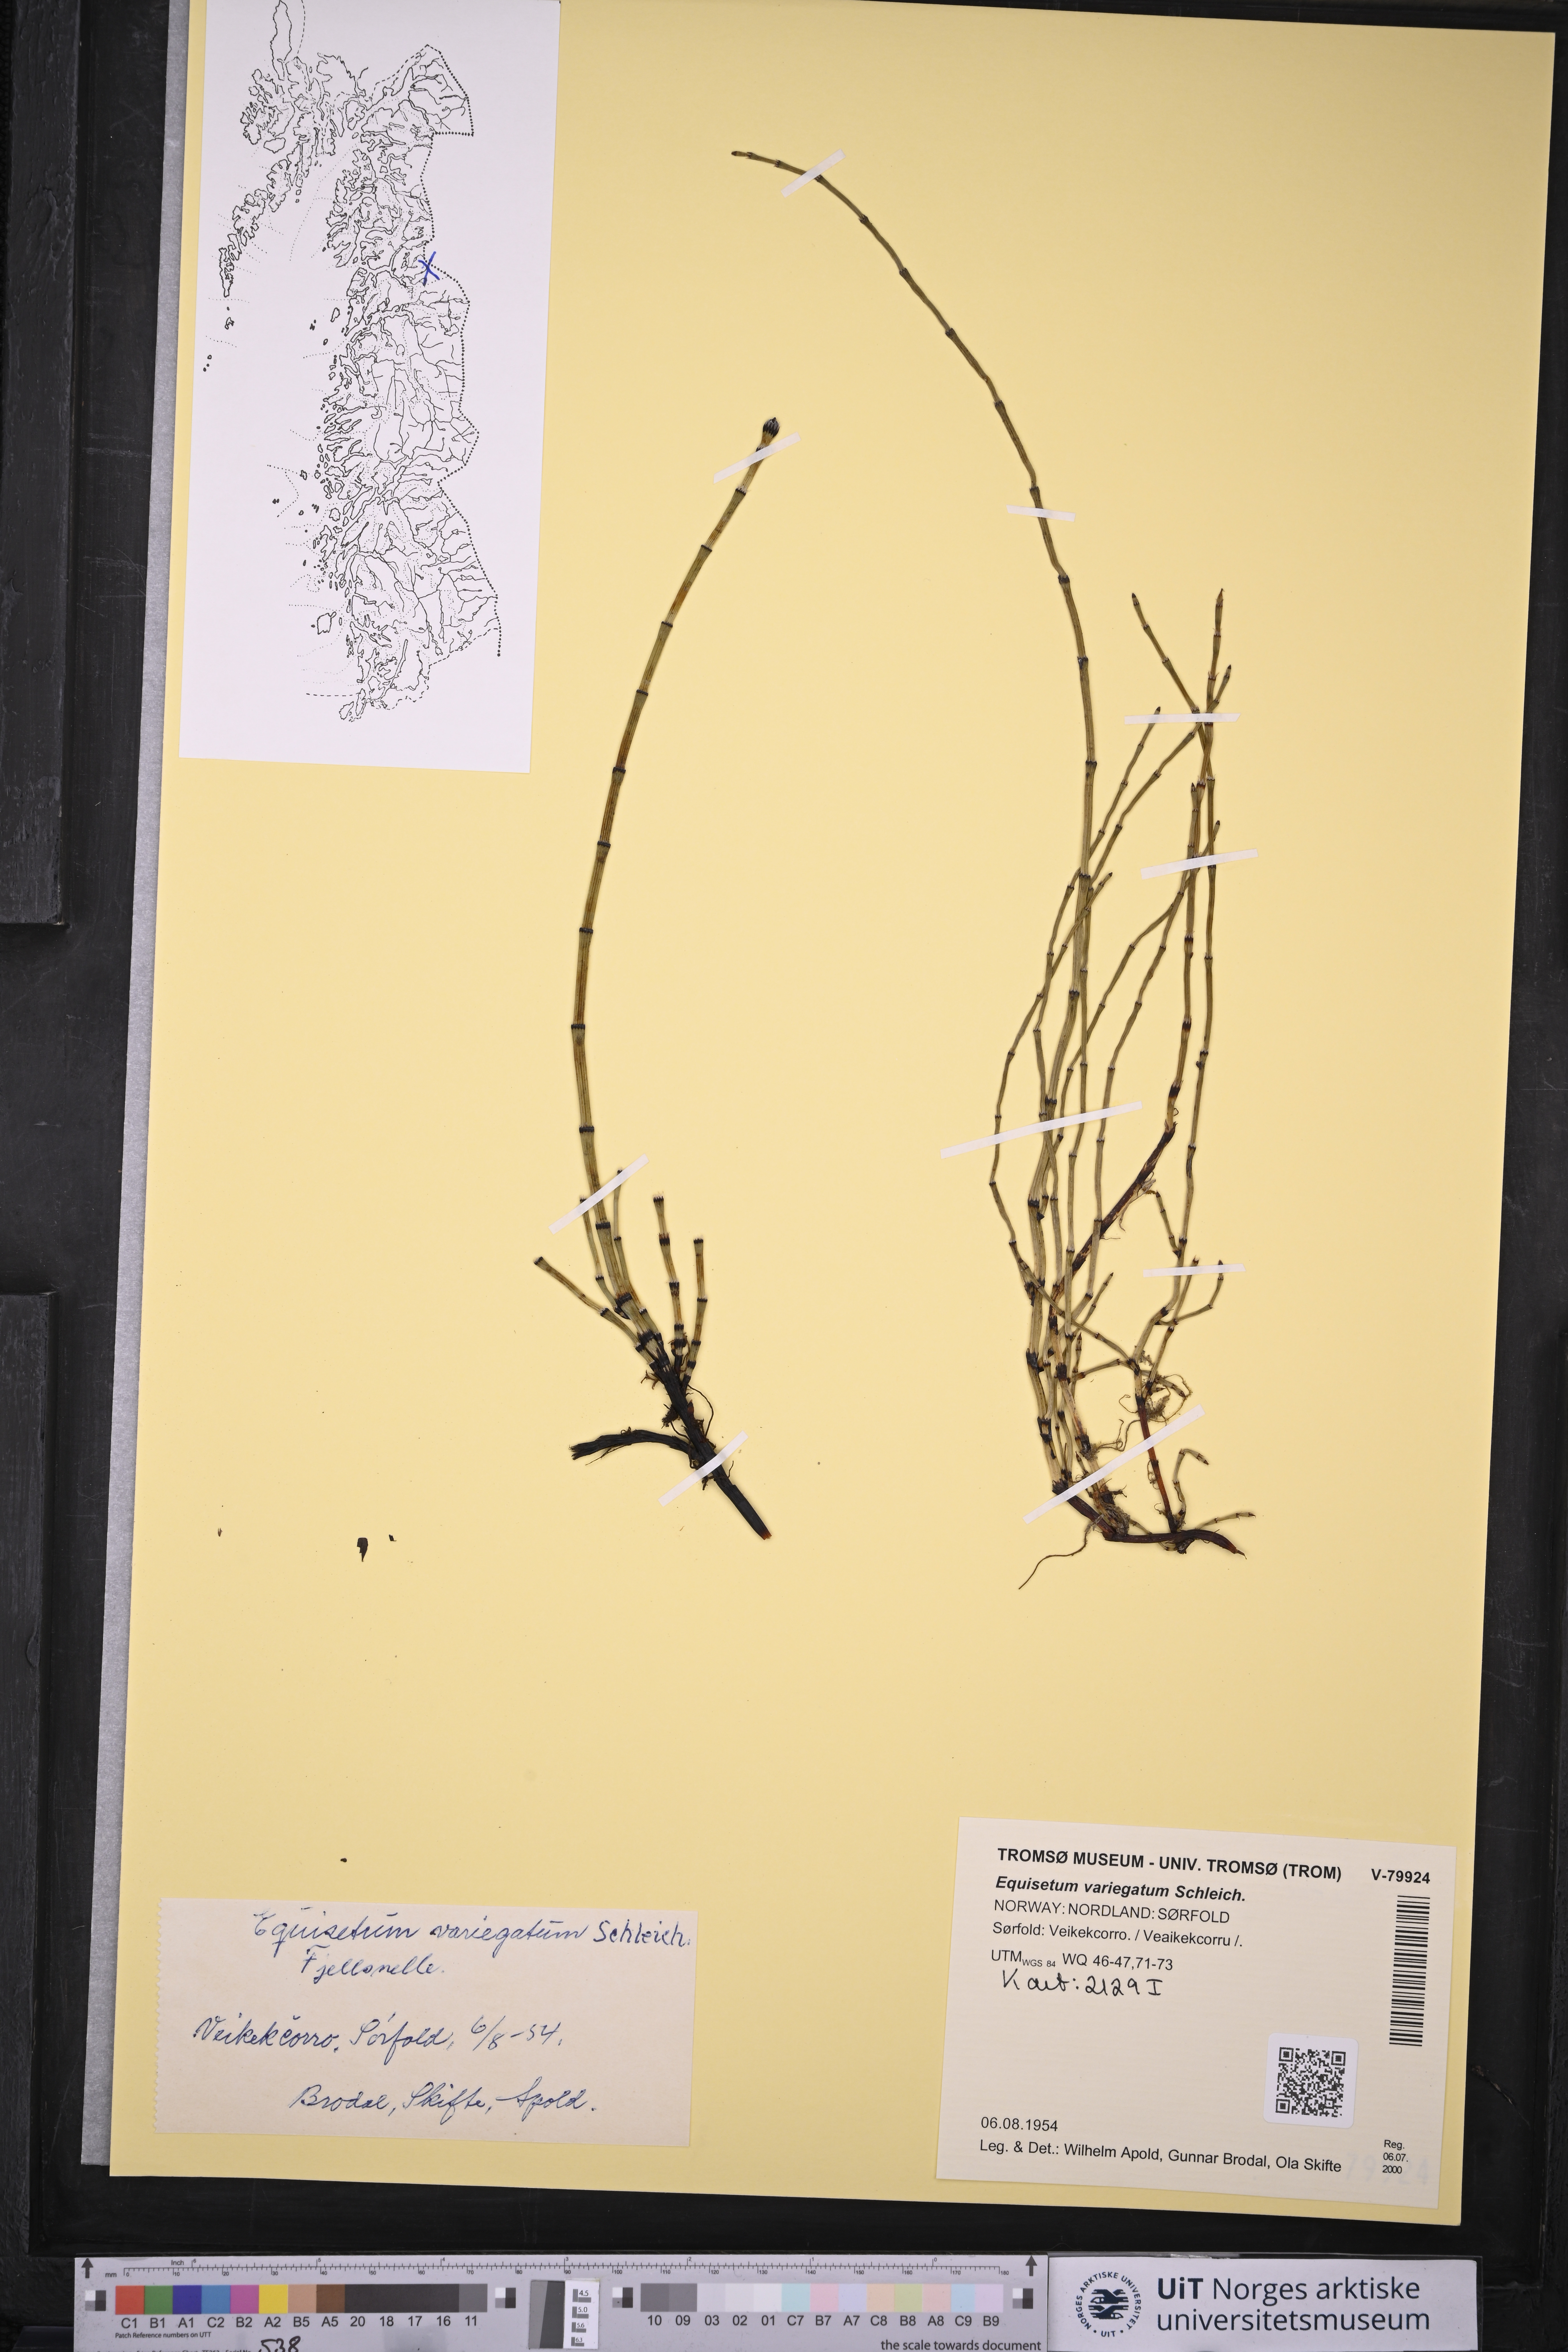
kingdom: Plantae
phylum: Tracheophyta
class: Polypodiopsida
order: Equisetales
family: Equisetaceae
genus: Equisetum
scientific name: Equisetum variegatum
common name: Variegated horsetail
